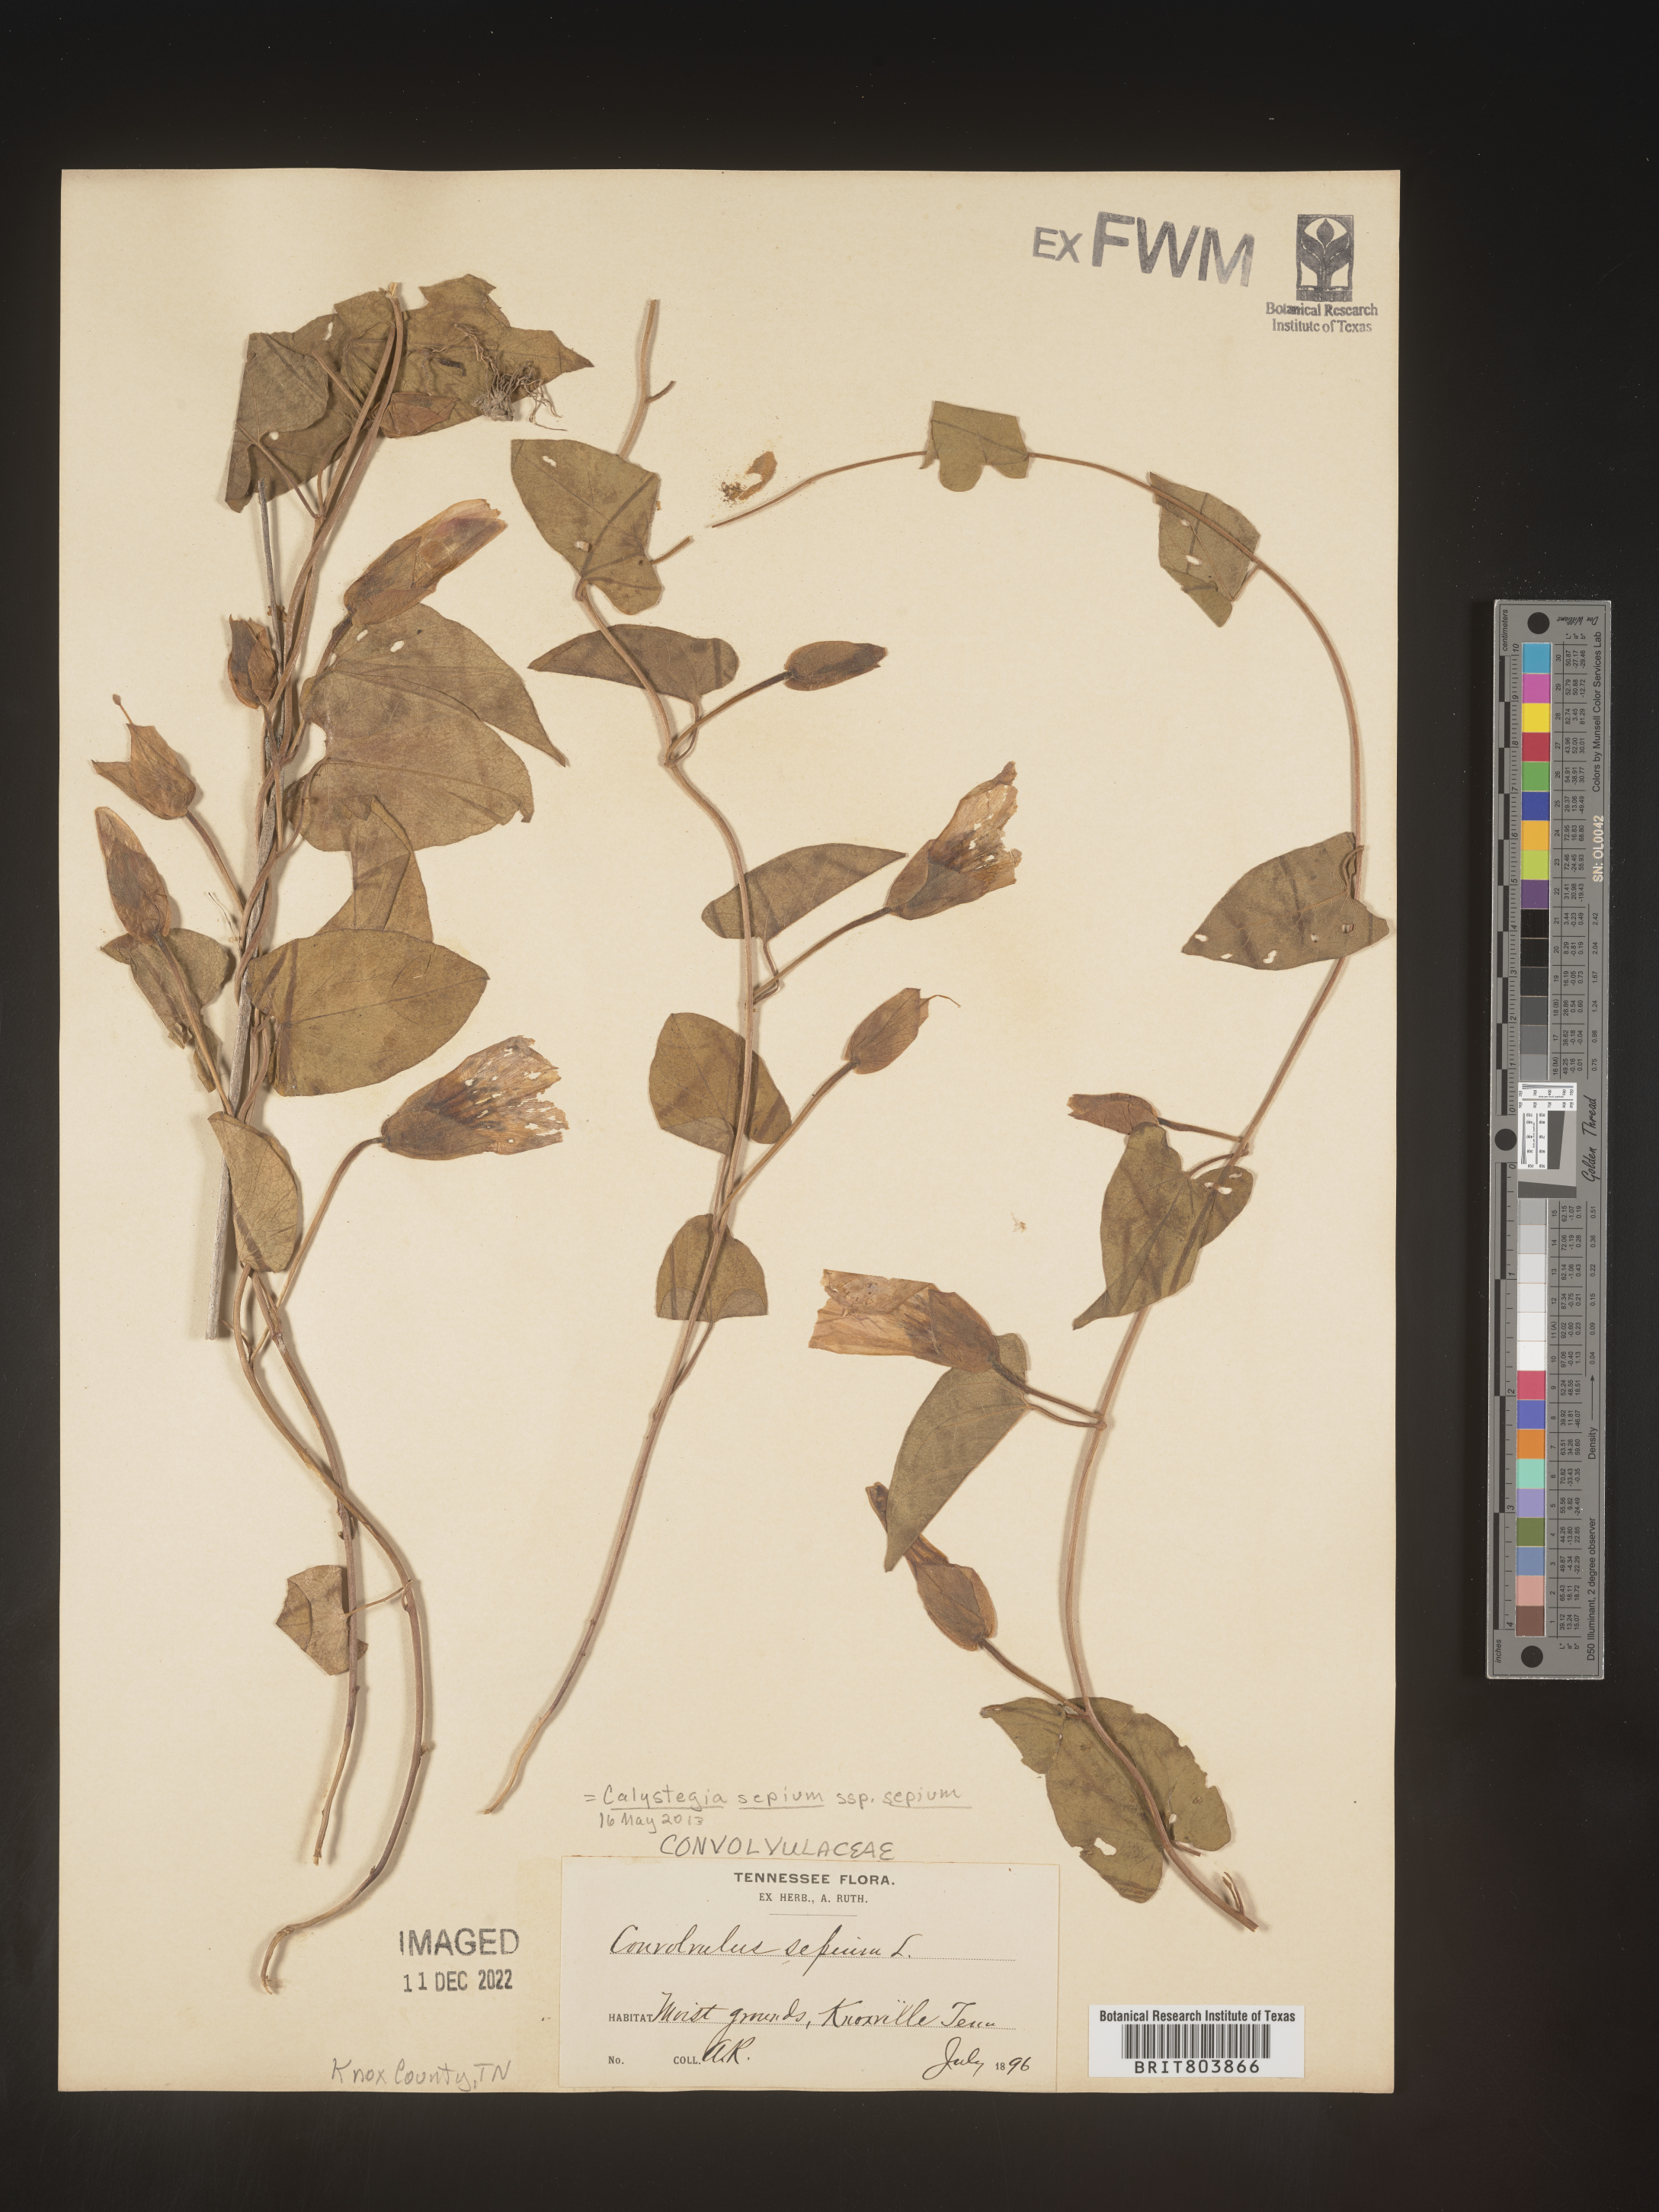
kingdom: Plantae
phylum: Tracheophyta
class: Magnoliopsida
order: Solanales
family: Convolvulaceae
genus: Calystegia
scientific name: Calystegia sepium
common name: Hedge bindweed
